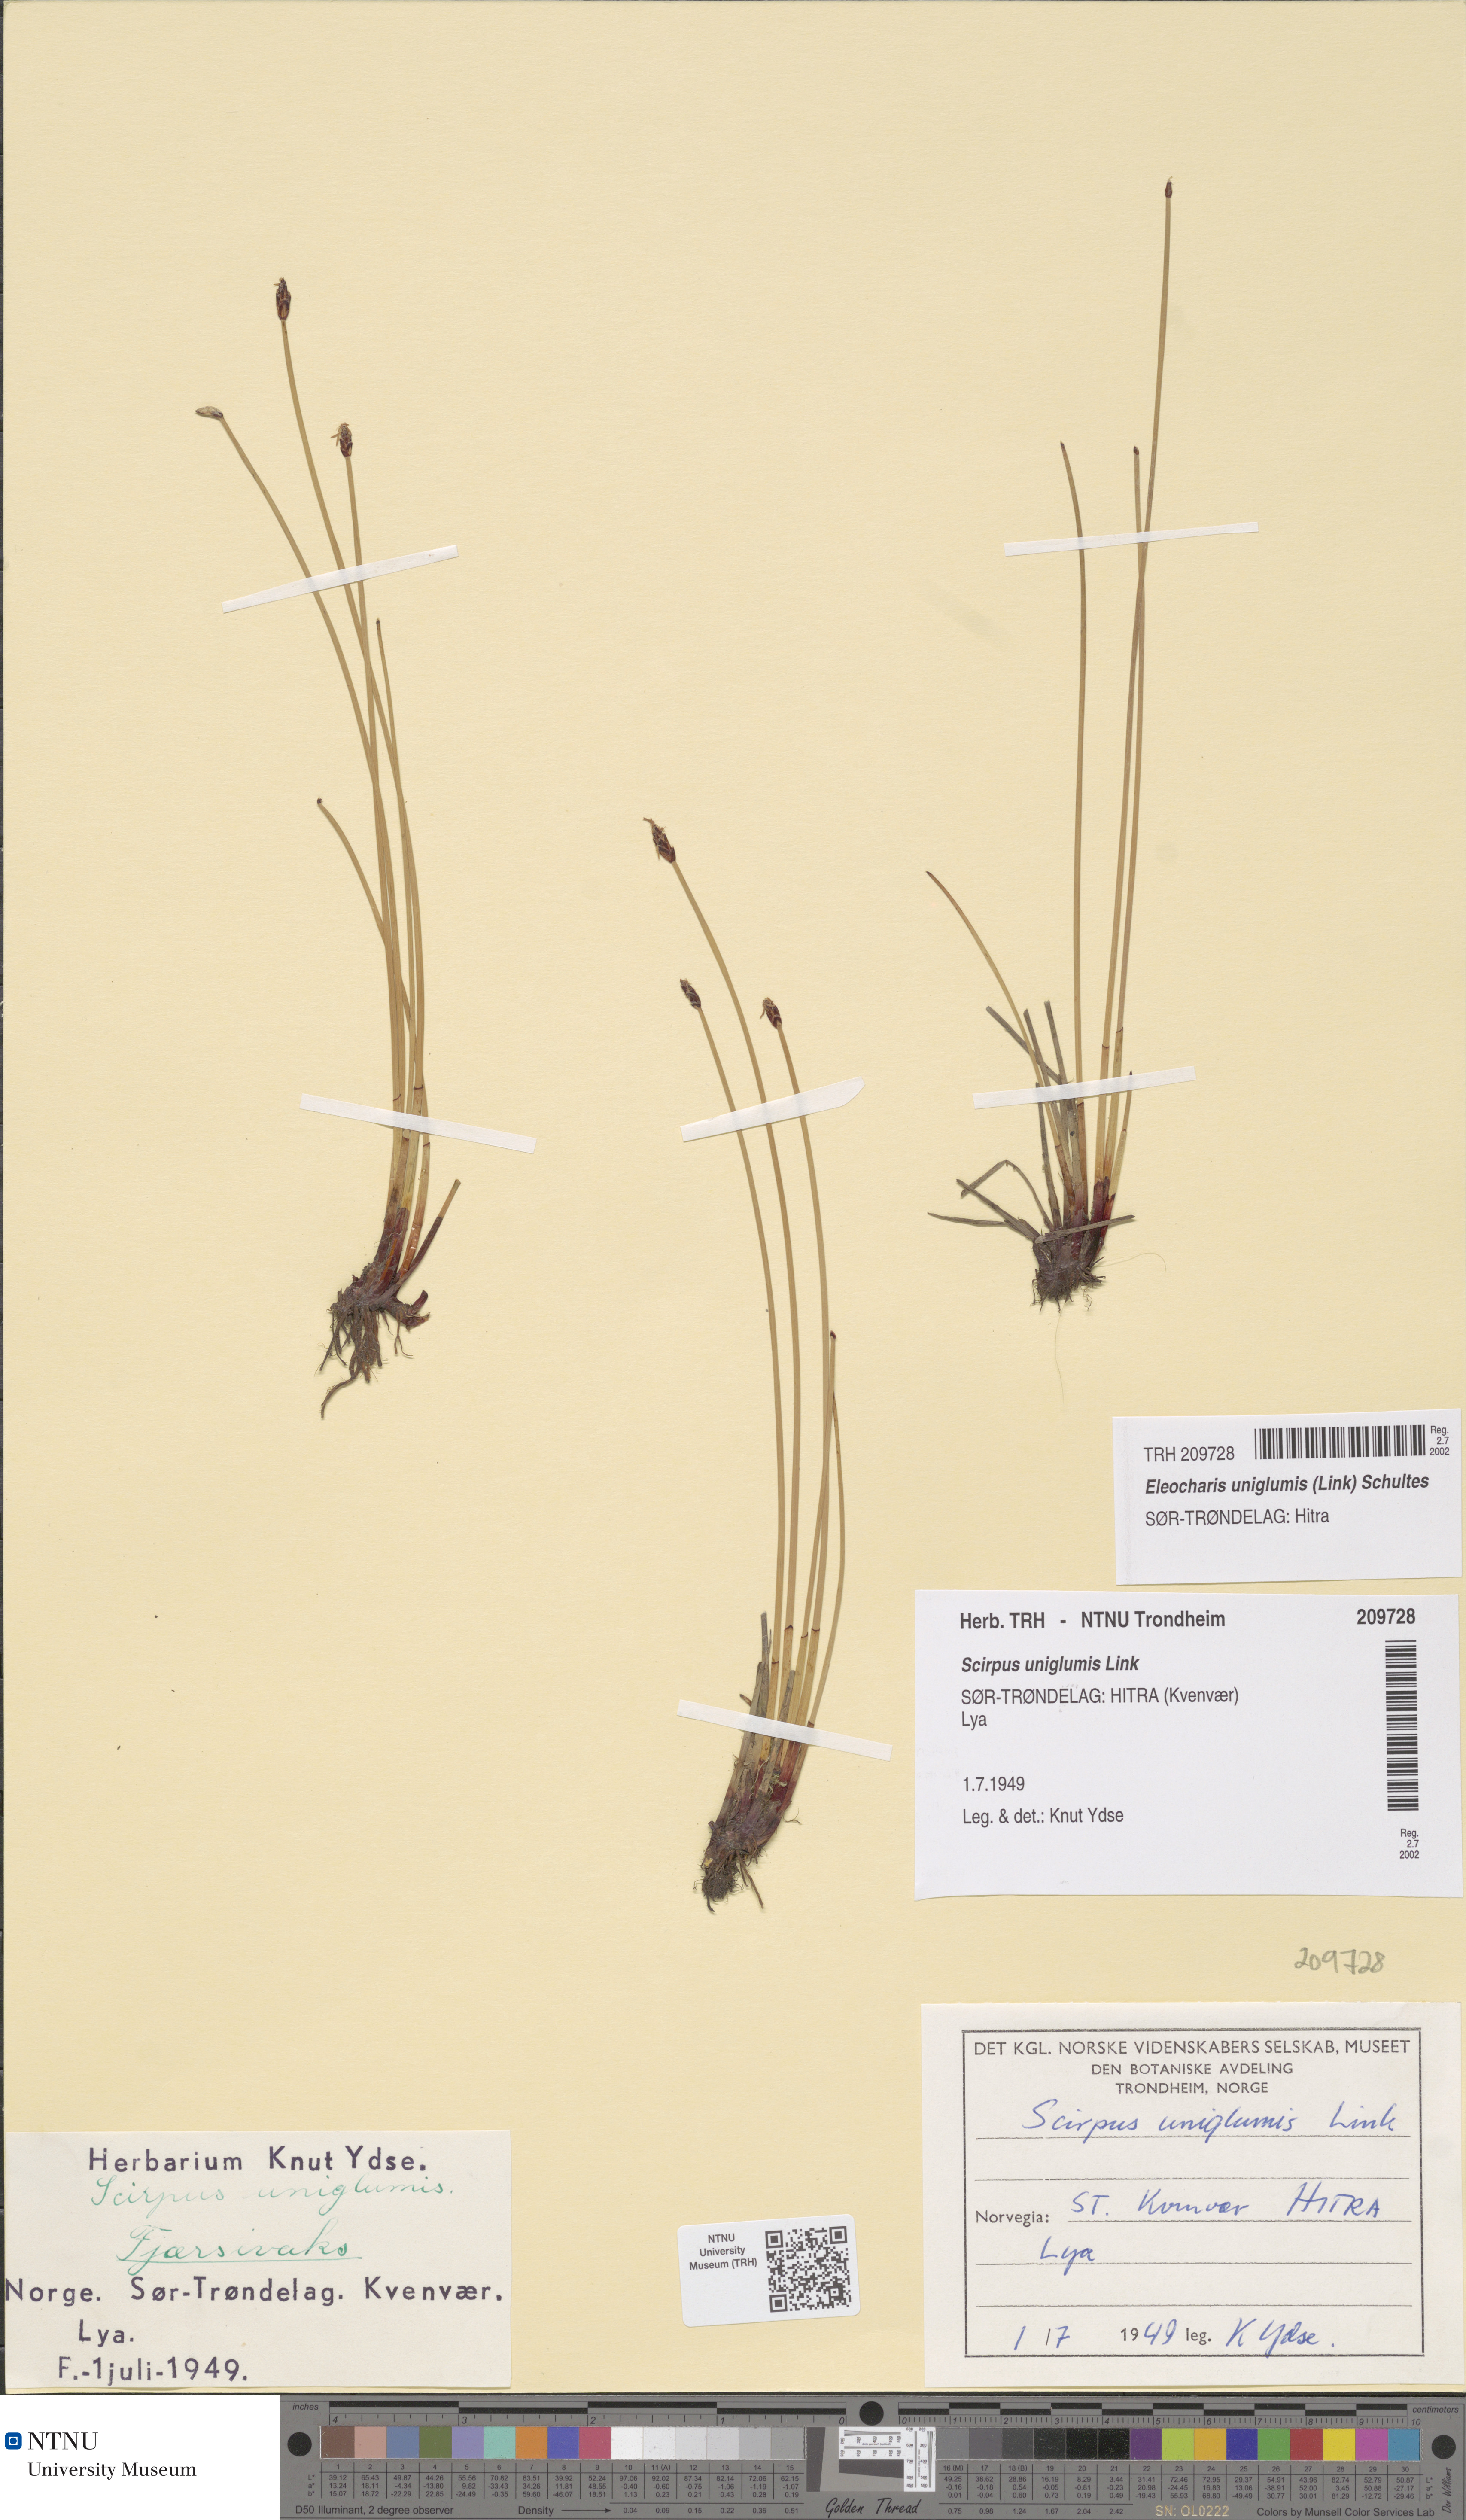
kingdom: Plantae
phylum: Tracheophyta
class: Liliopsida
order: Poales
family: Cyperaceae
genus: Eleocharis
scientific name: Eleocharis uniglumis
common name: Slender spike-rush
